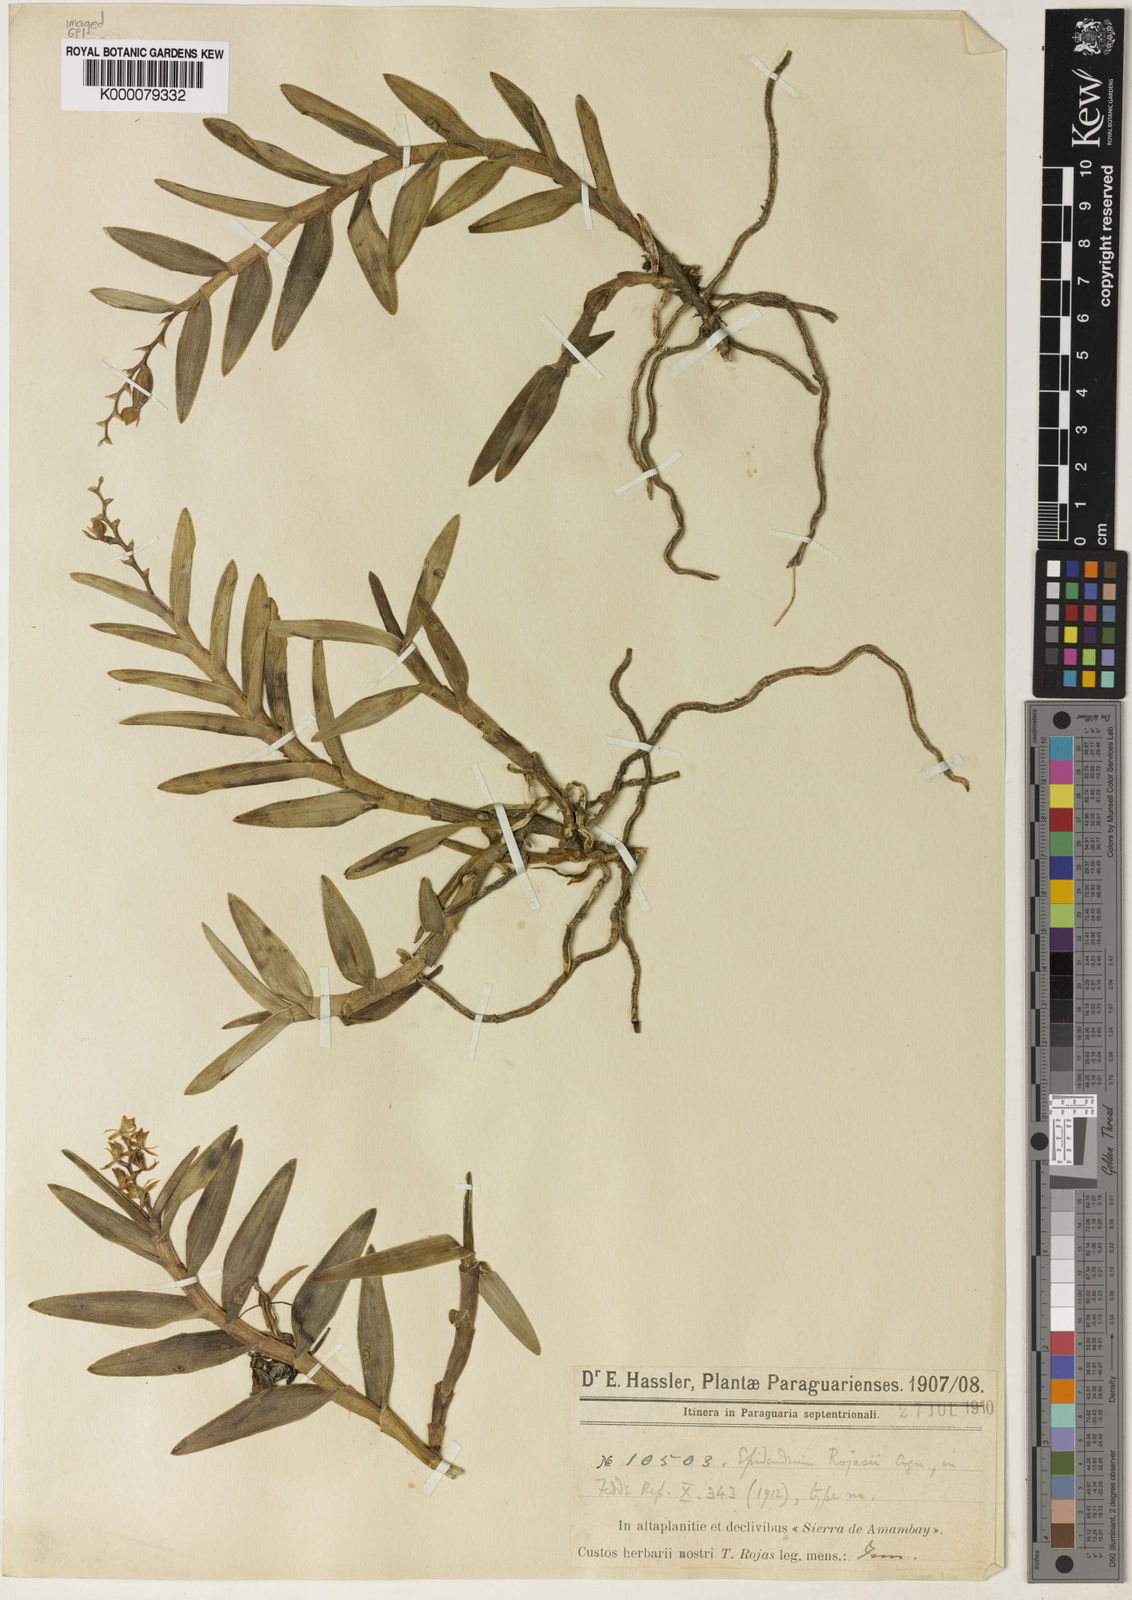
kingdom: Plantae
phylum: Tracheophyta
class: Liliopsida
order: Asparagales
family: Orchidaceae
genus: Epidendrum
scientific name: Epidendrum rojasii
